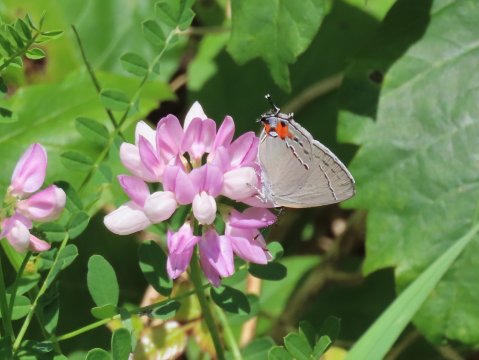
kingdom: Animalia
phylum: Arthropoda
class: Insecta
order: Lepidoptera
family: Lycaenidae
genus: Strymon
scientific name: Strymon melinus
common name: Gray Hairstreak
